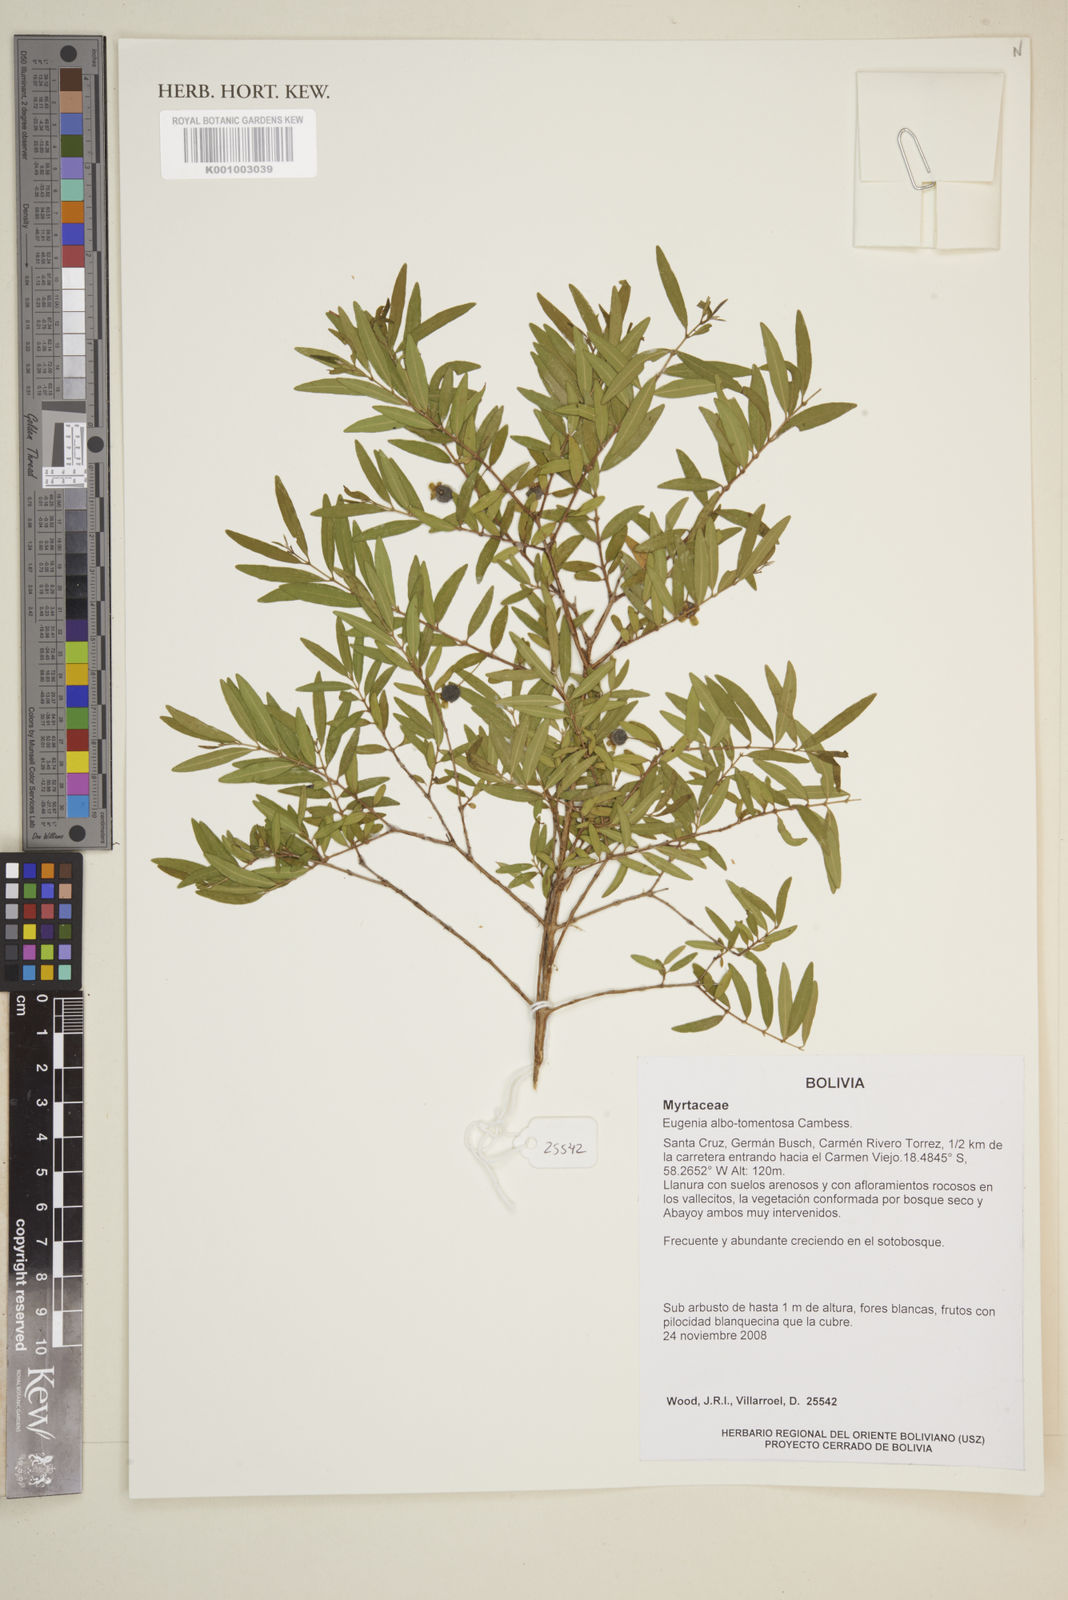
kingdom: Plantae
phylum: Tracheophyta
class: Magnoliopsida
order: Myrtales
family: Myrtaceae
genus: Eugenia
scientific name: Eugenia pyriformis
